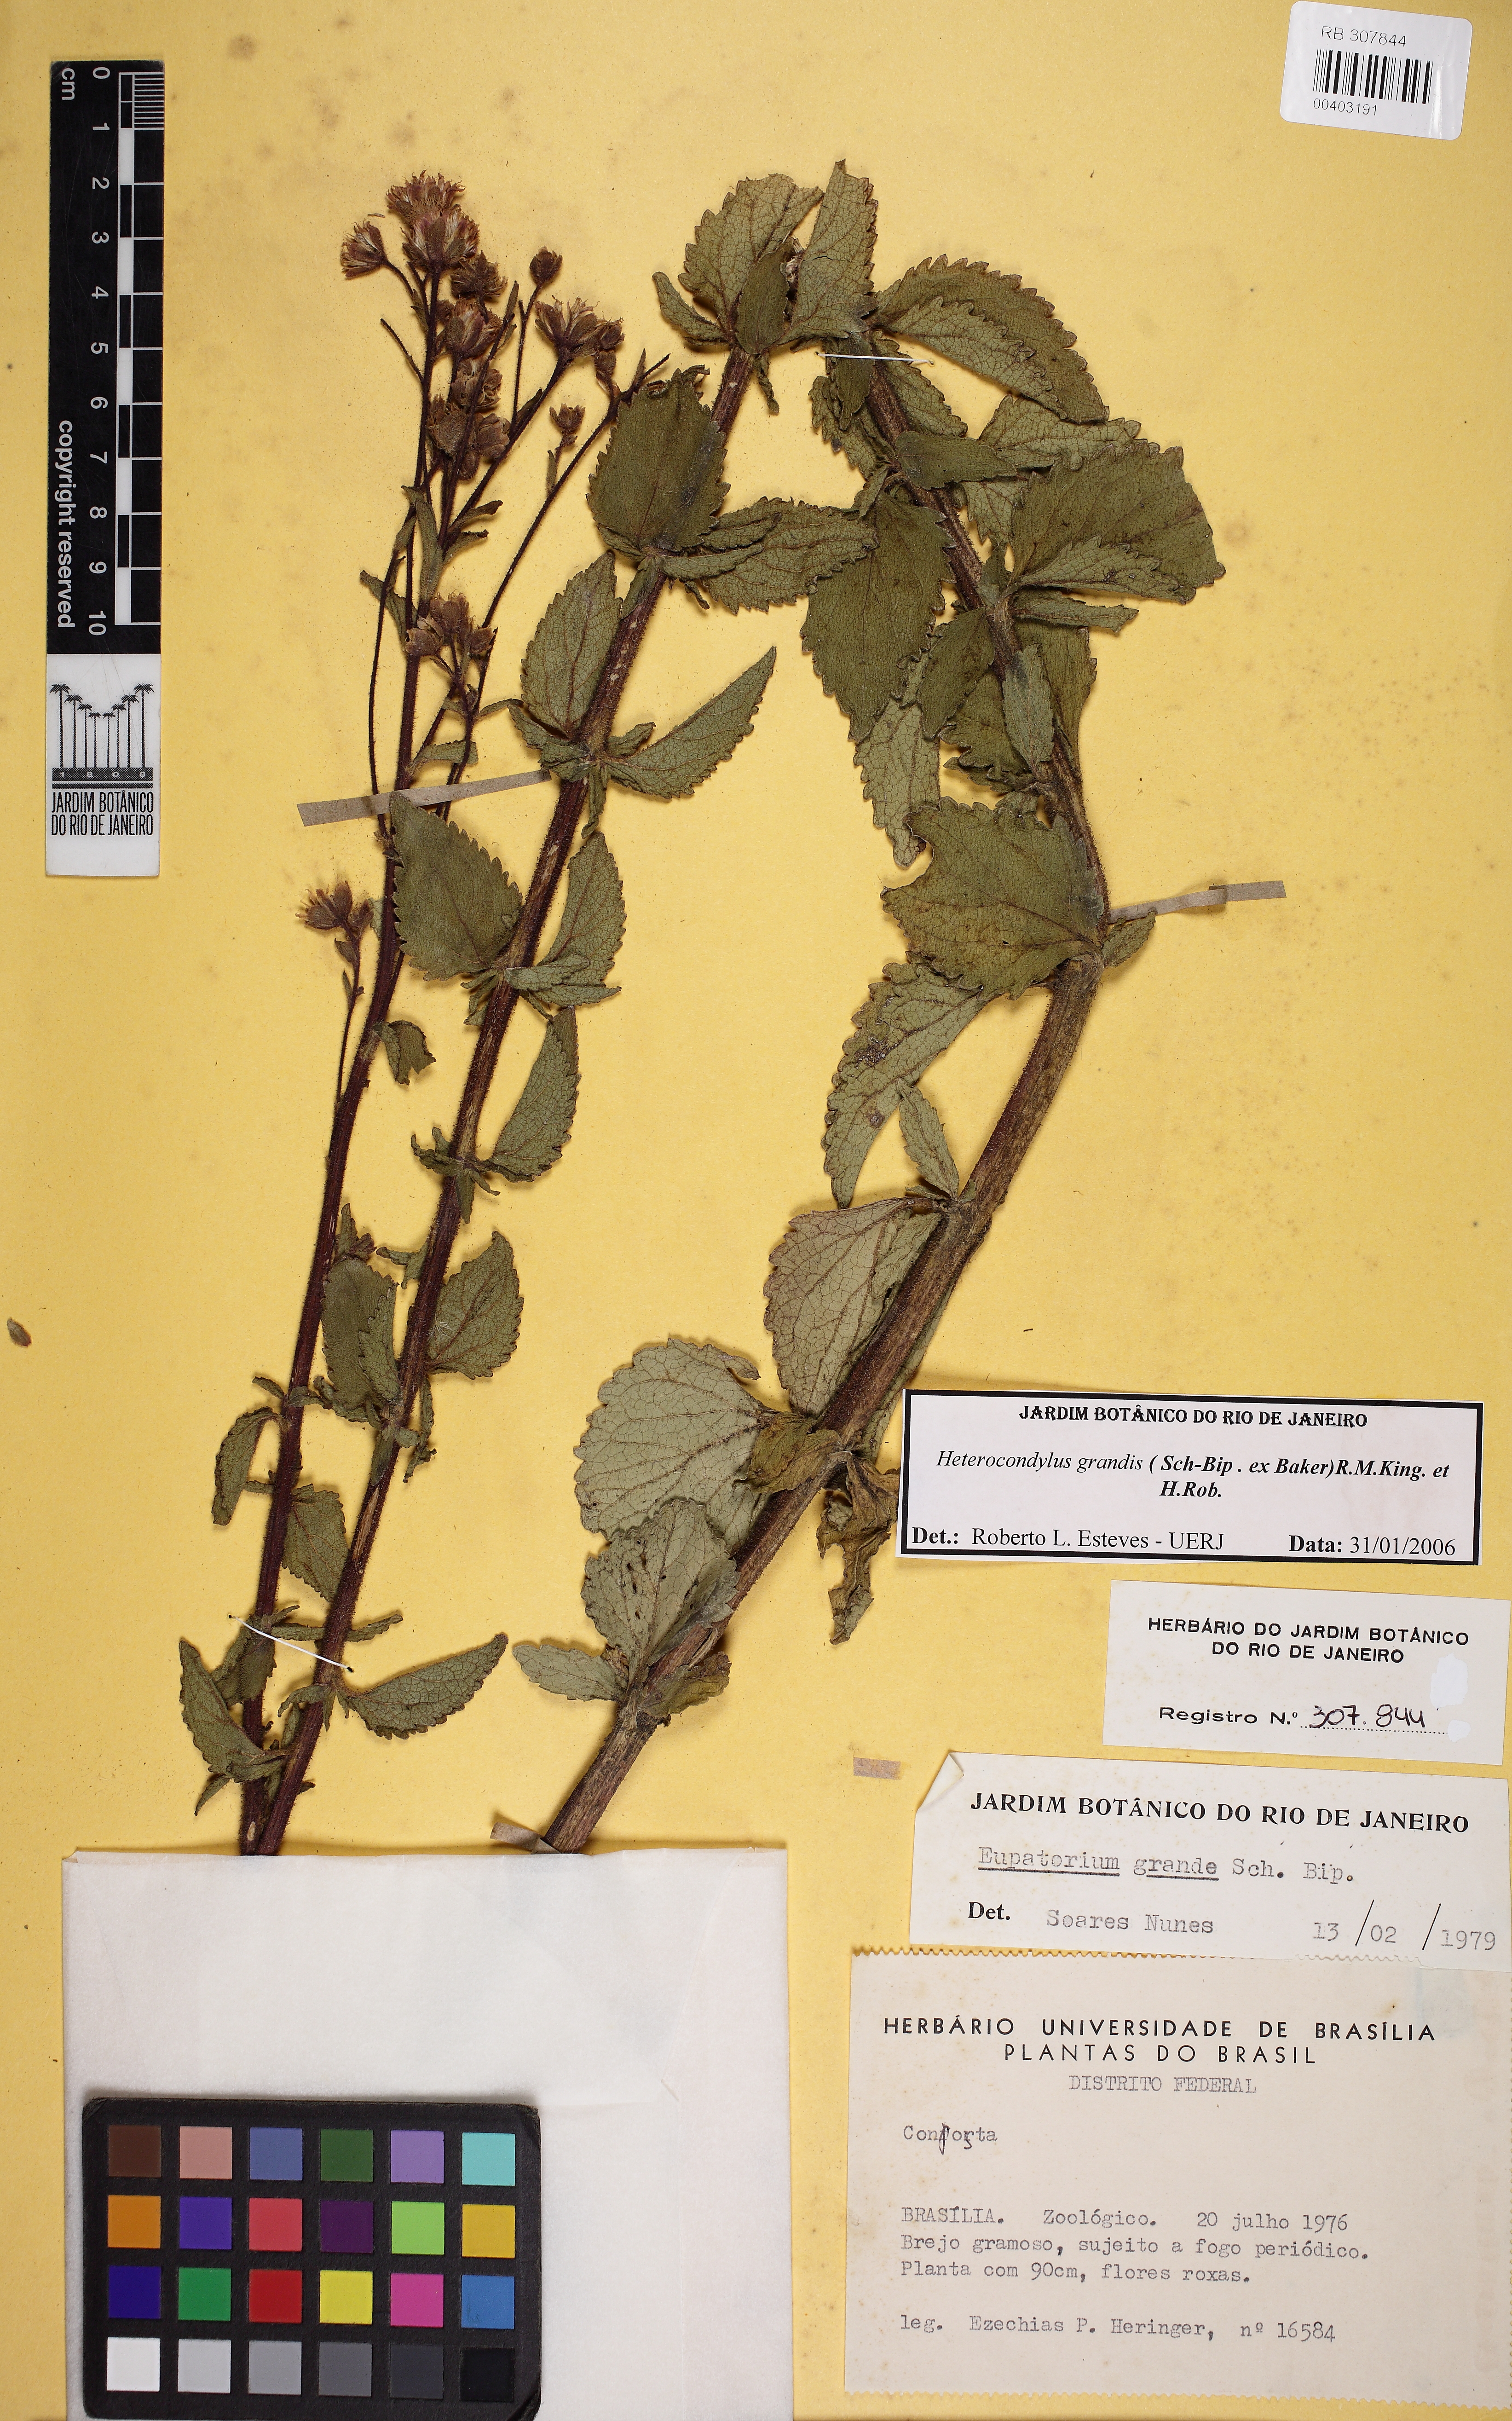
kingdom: Plantae
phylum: Tracheophyta
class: Magnoliopsida
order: Asterales
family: Asteraceae
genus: Heterocondylus
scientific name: Heterocondylus grandis
